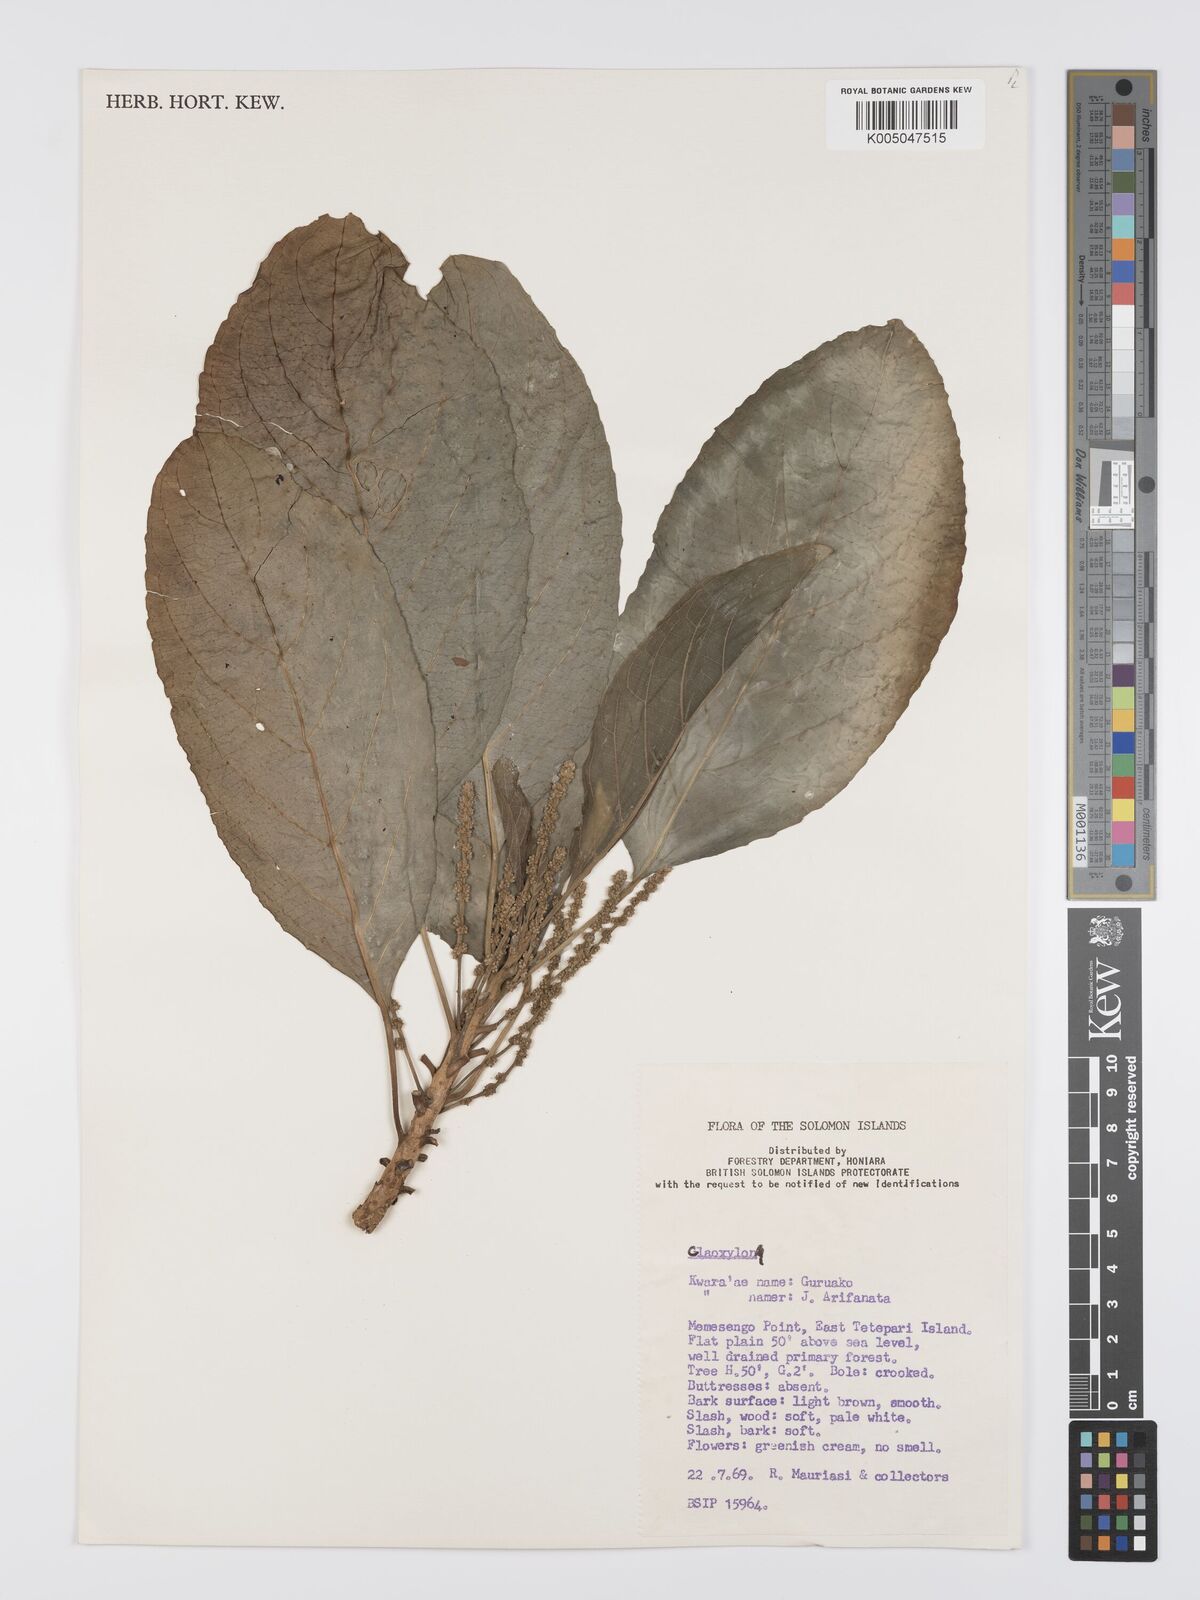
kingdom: Plantae
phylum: Tracheophyta
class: Magnoliopsida
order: Malpighiales
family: Euphorbiaceae
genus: Claoxylon
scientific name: Claoxylon carolinianum
